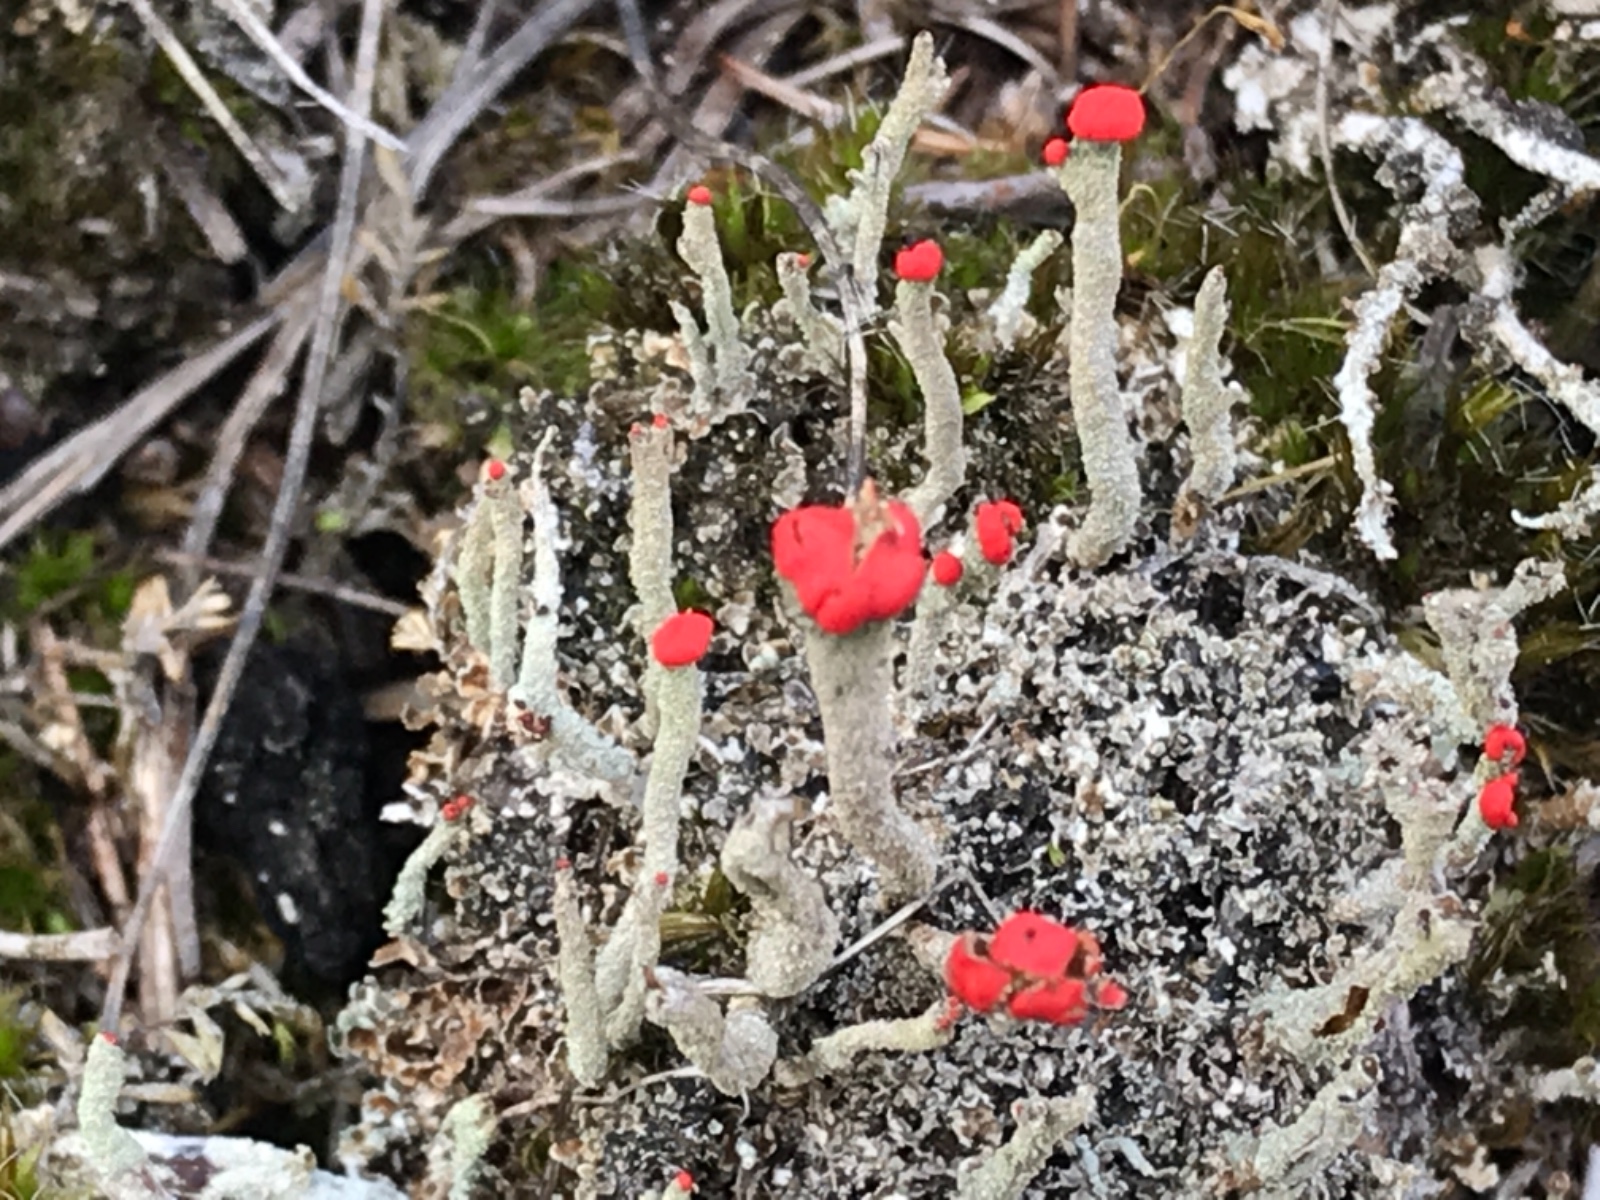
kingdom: Fungi
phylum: Ascomycota
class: Lecanoromycetes
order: Lecanorales
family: Cladoniaceae
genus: Cladonia
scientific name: Cladonia macilenta
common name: indsvunden bægerlav
